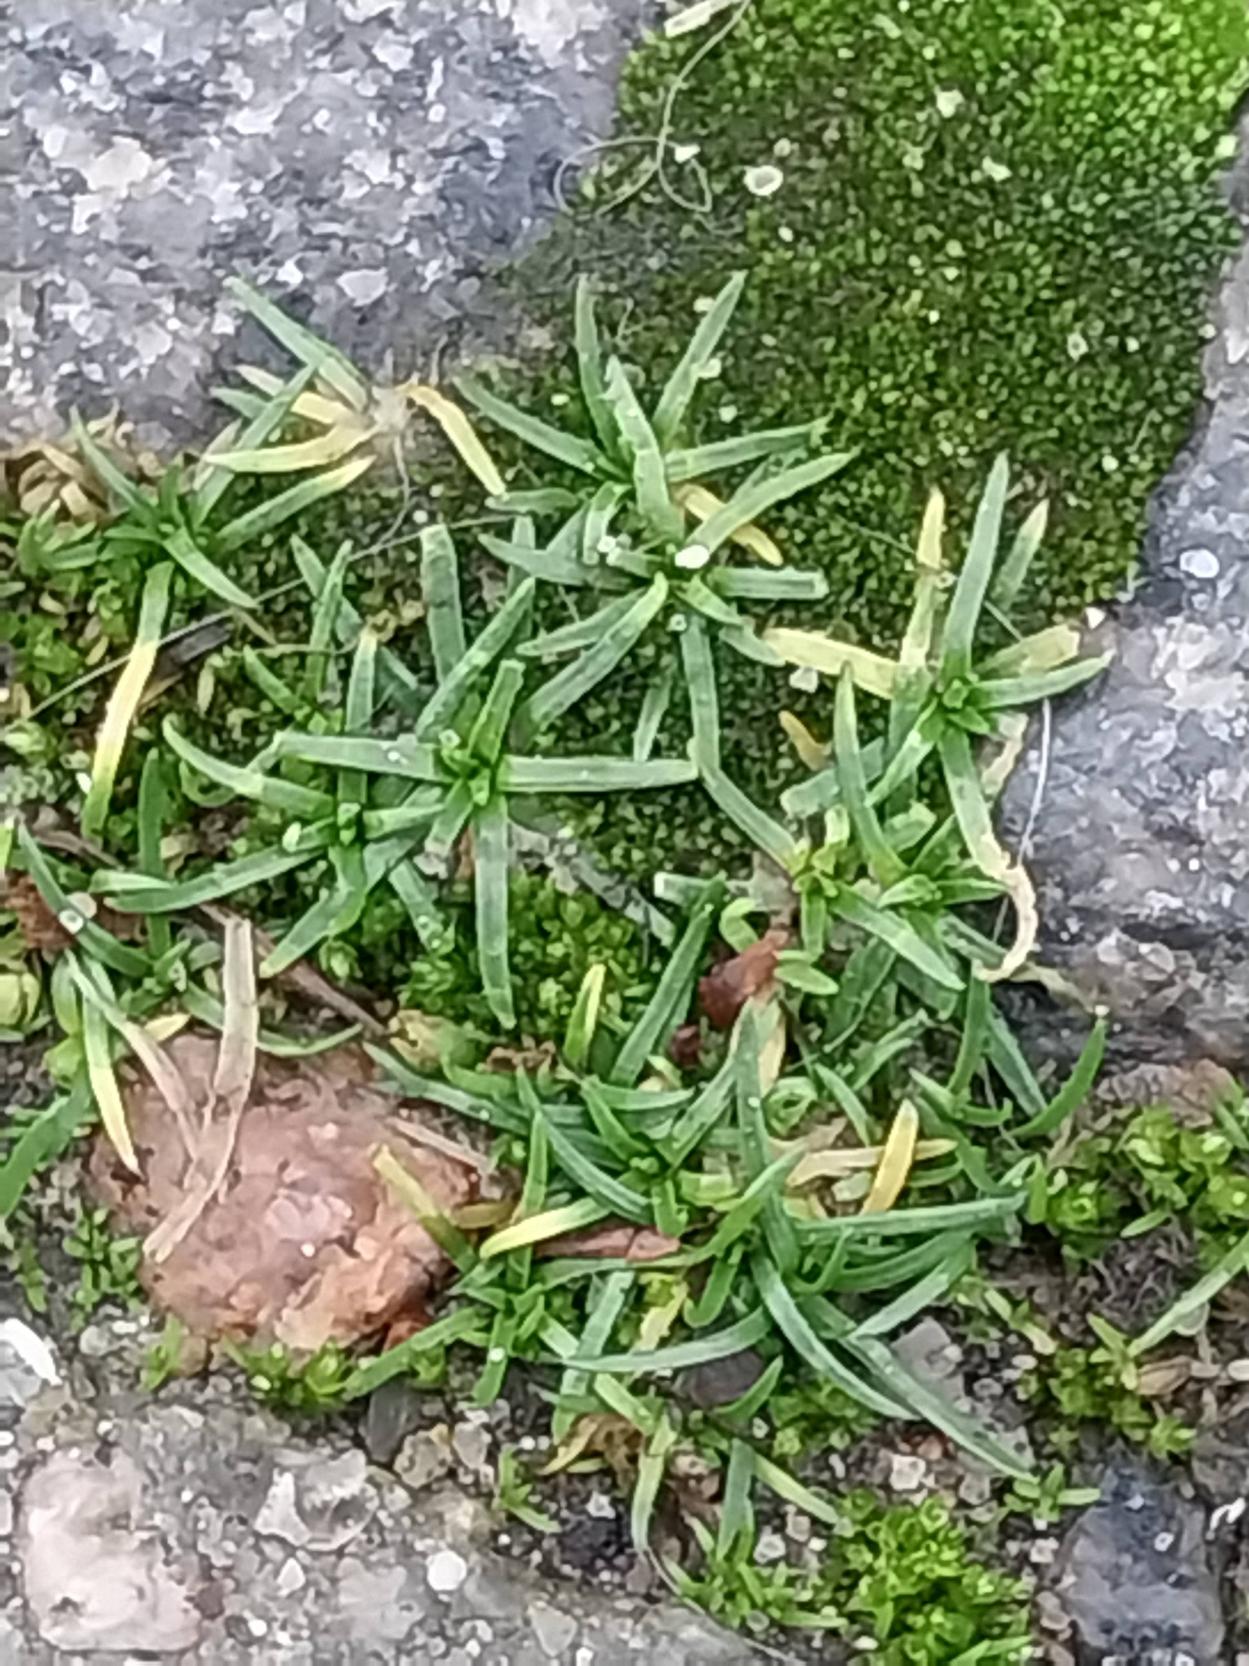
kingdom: Plantae
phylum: Tracheophyta
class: Magnoliopsida
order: Caryophyllales
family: Caryophyllaceae
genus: Sagina
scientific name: Sagina procumbens
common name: Almindelig firling
